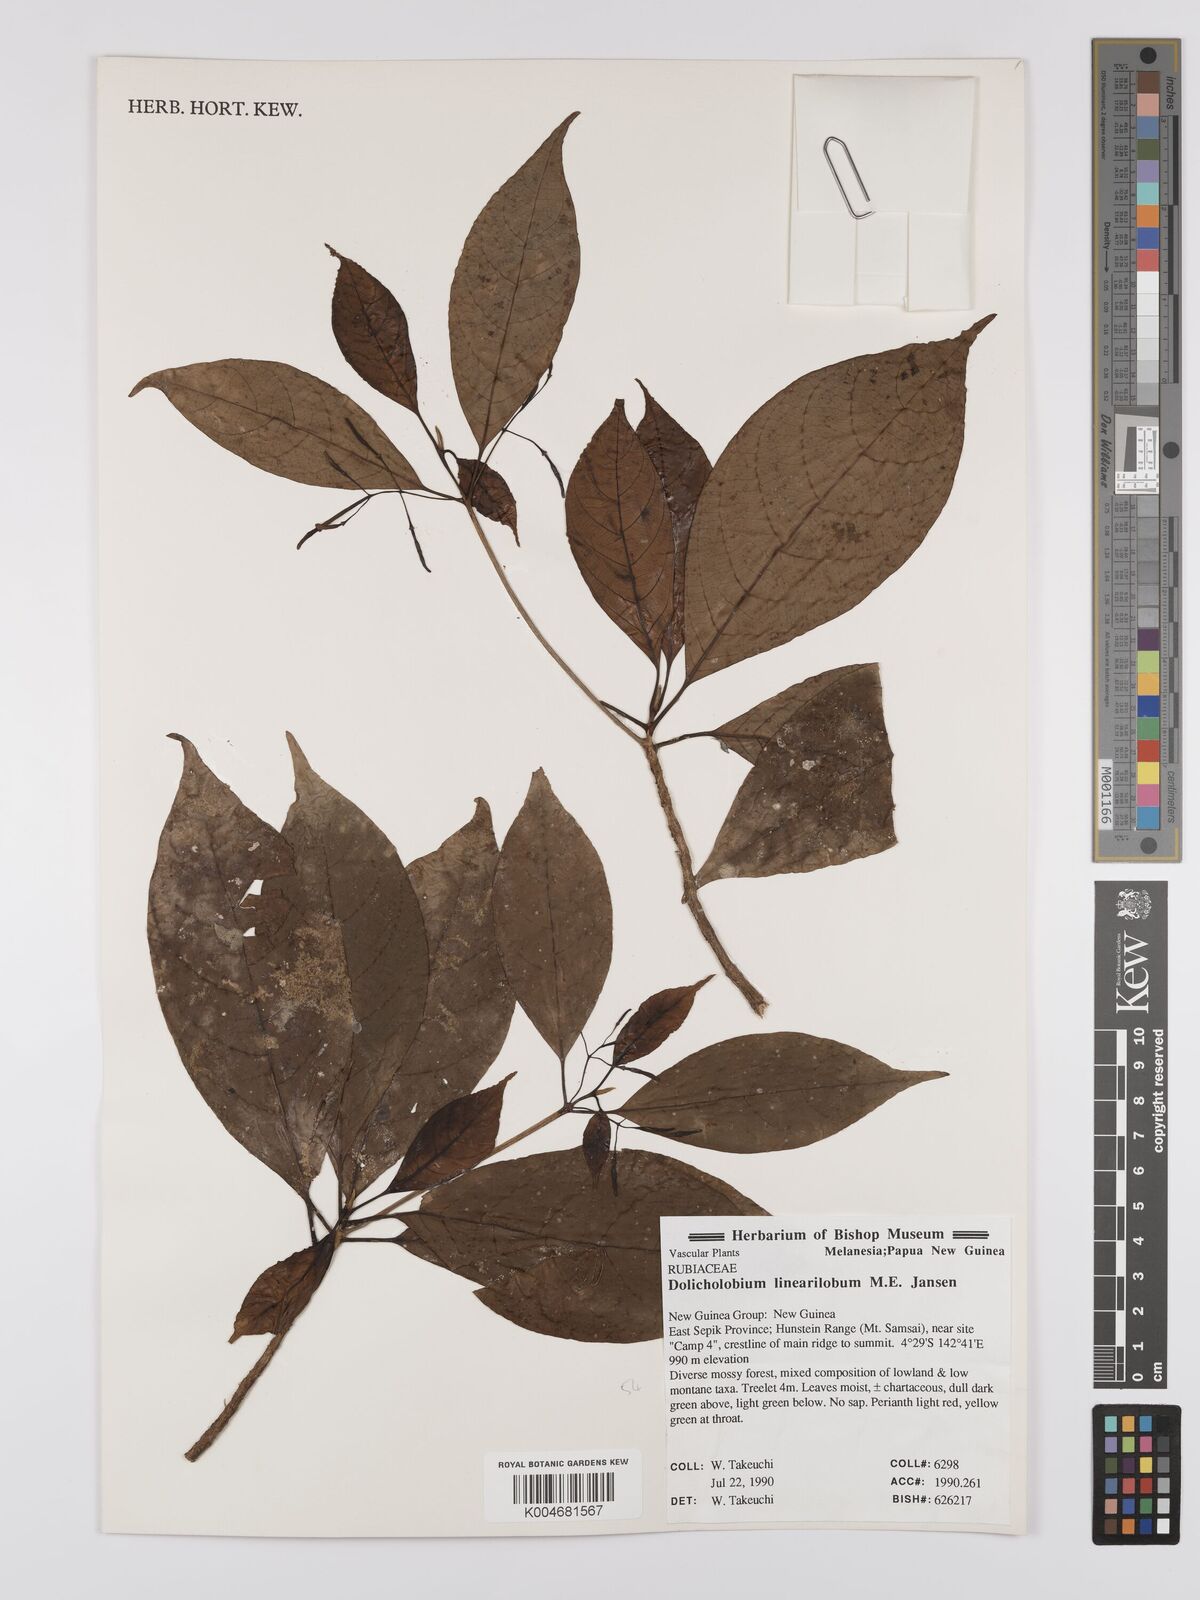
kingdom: Plantae
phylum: Tracheophyta
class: Magnoliopsida
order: Gentianales
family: Rubiaceae
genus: Dolicholobium
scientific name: Dolicholobium linearilobum
